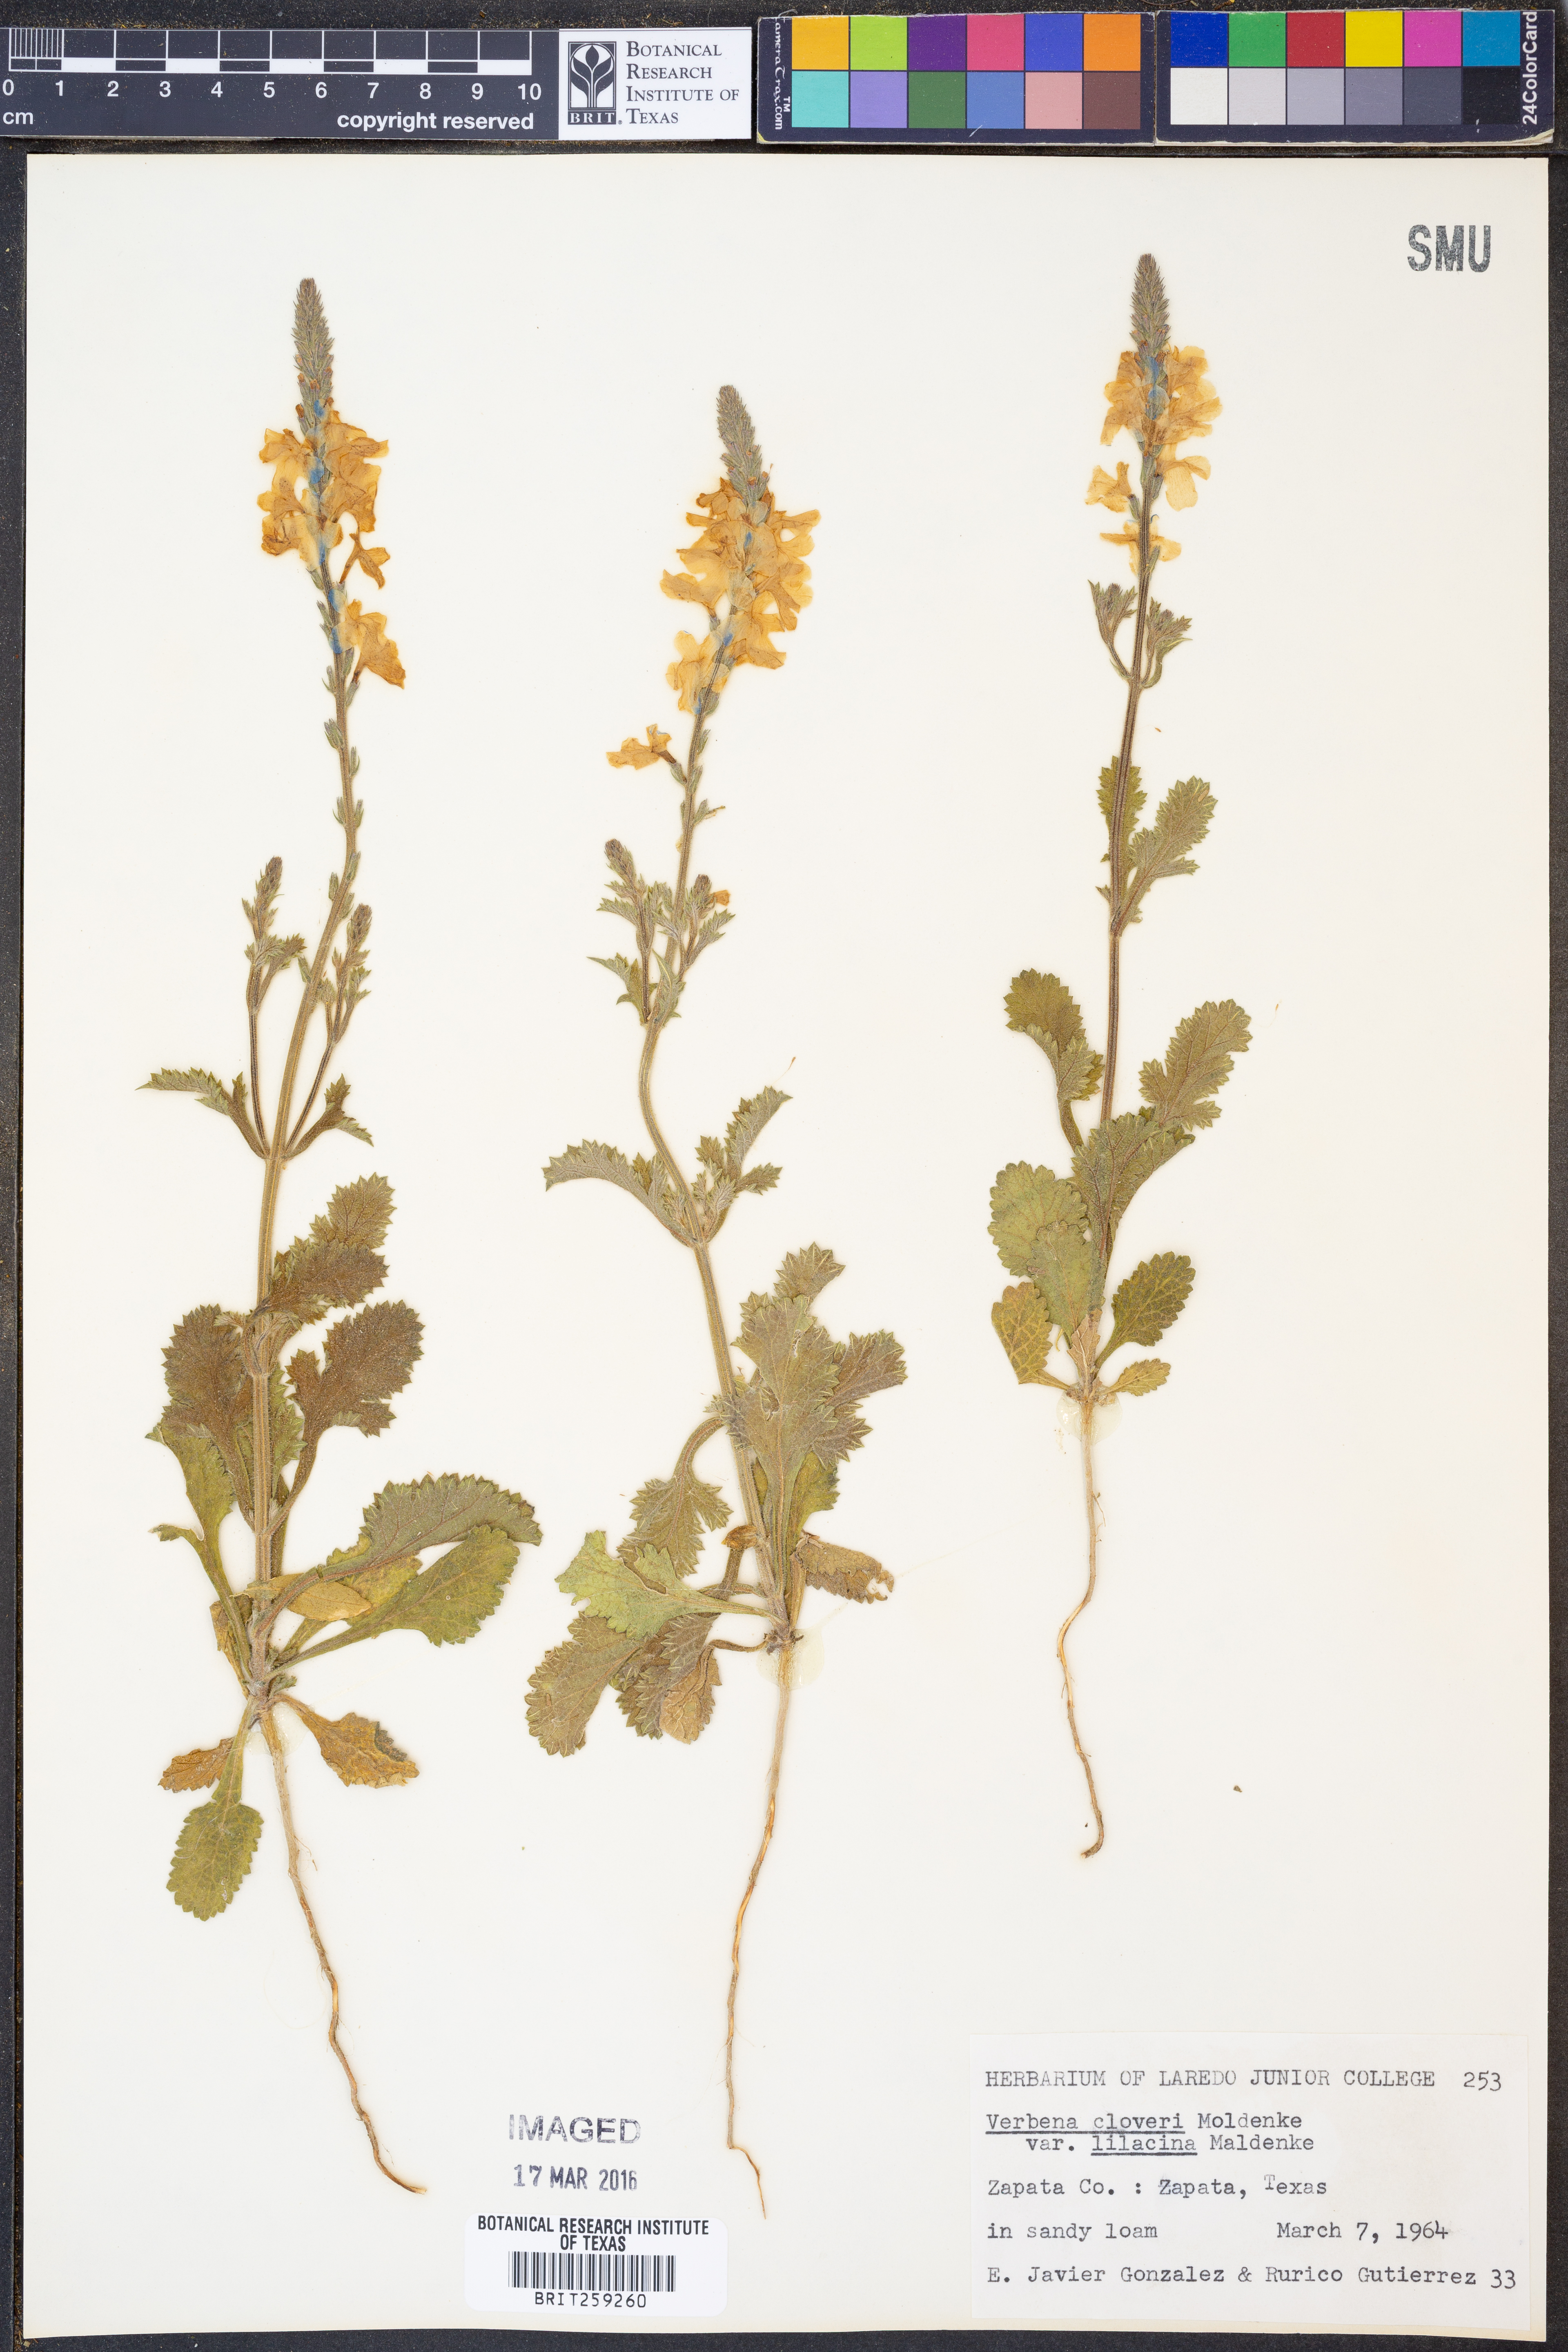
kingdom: Plantae
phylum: Tracheophyta
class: Magnoliopsida
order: Lamiales
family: Verbenaceae
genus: Verbena
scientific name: Verbena cloverae
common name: Clover's vervain
